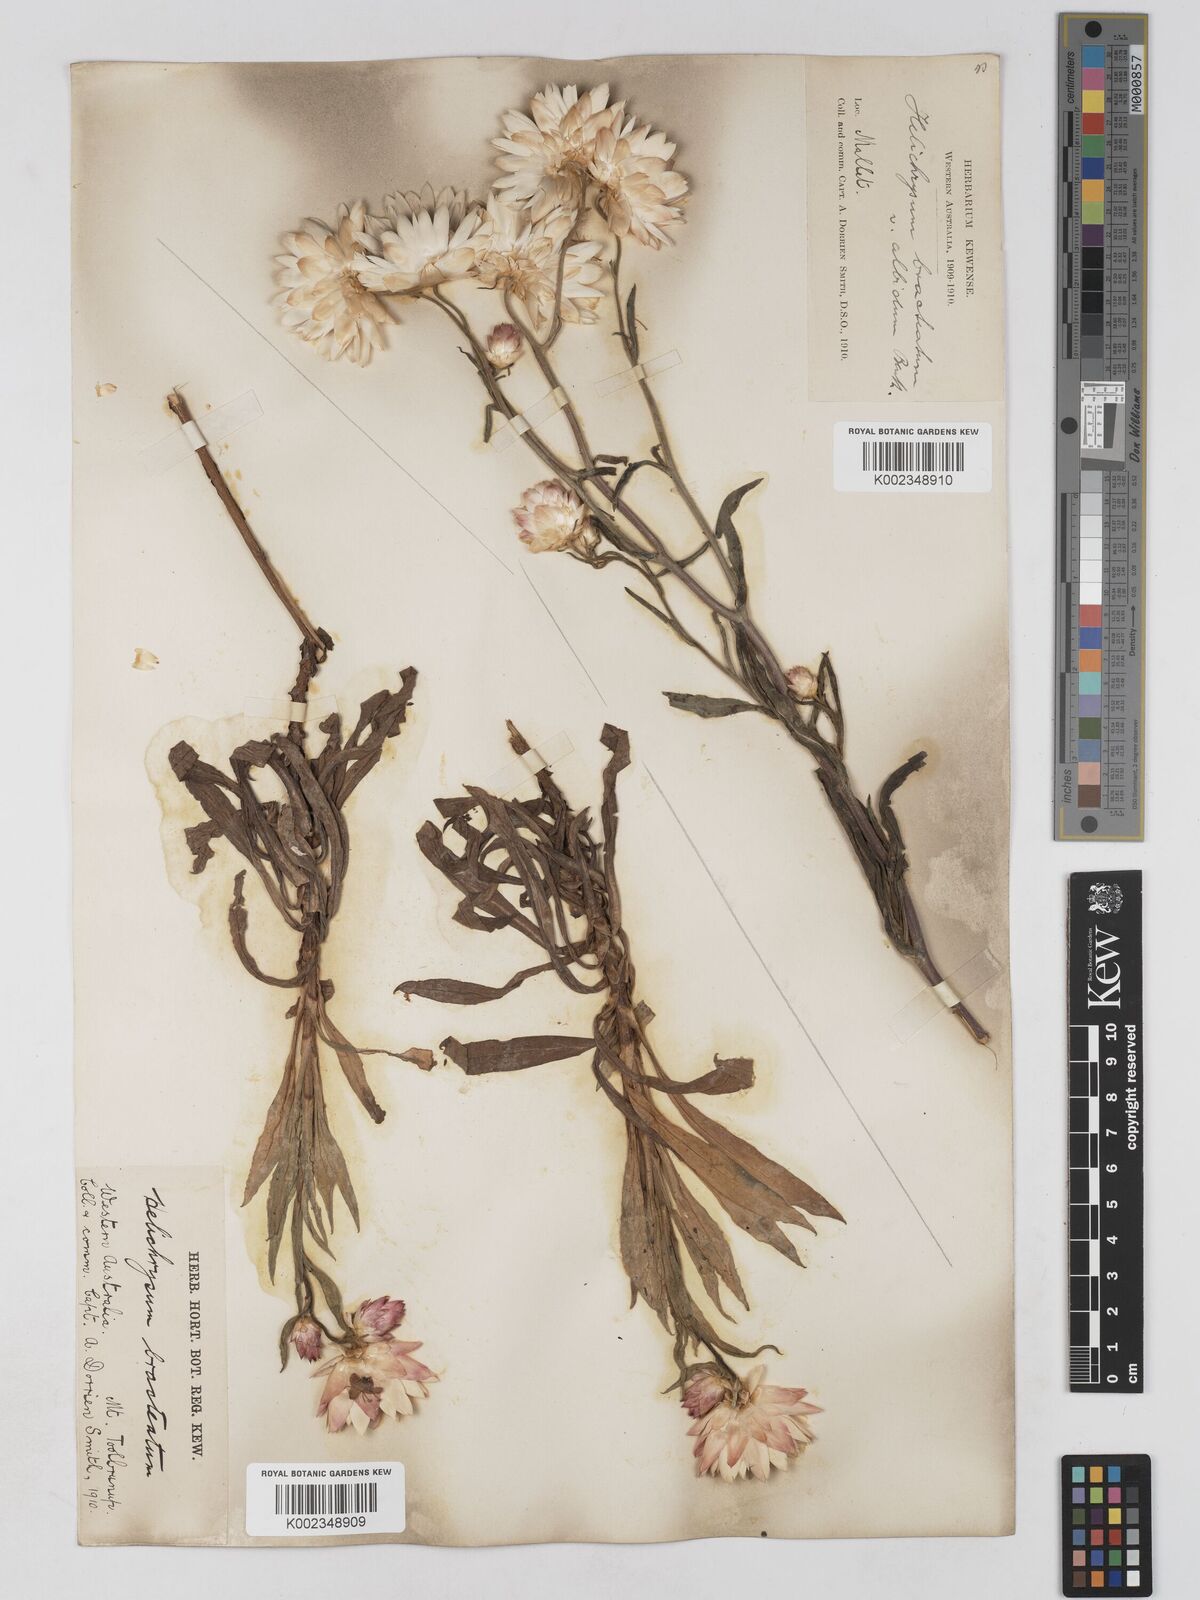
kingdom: Plantae
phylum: Tracheophyta
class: Magnoliopsida
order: Asterales
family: Asteraceae
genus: Xerochrysum
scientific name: Xerochrysum bracteatum
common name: Bracted strawflower
